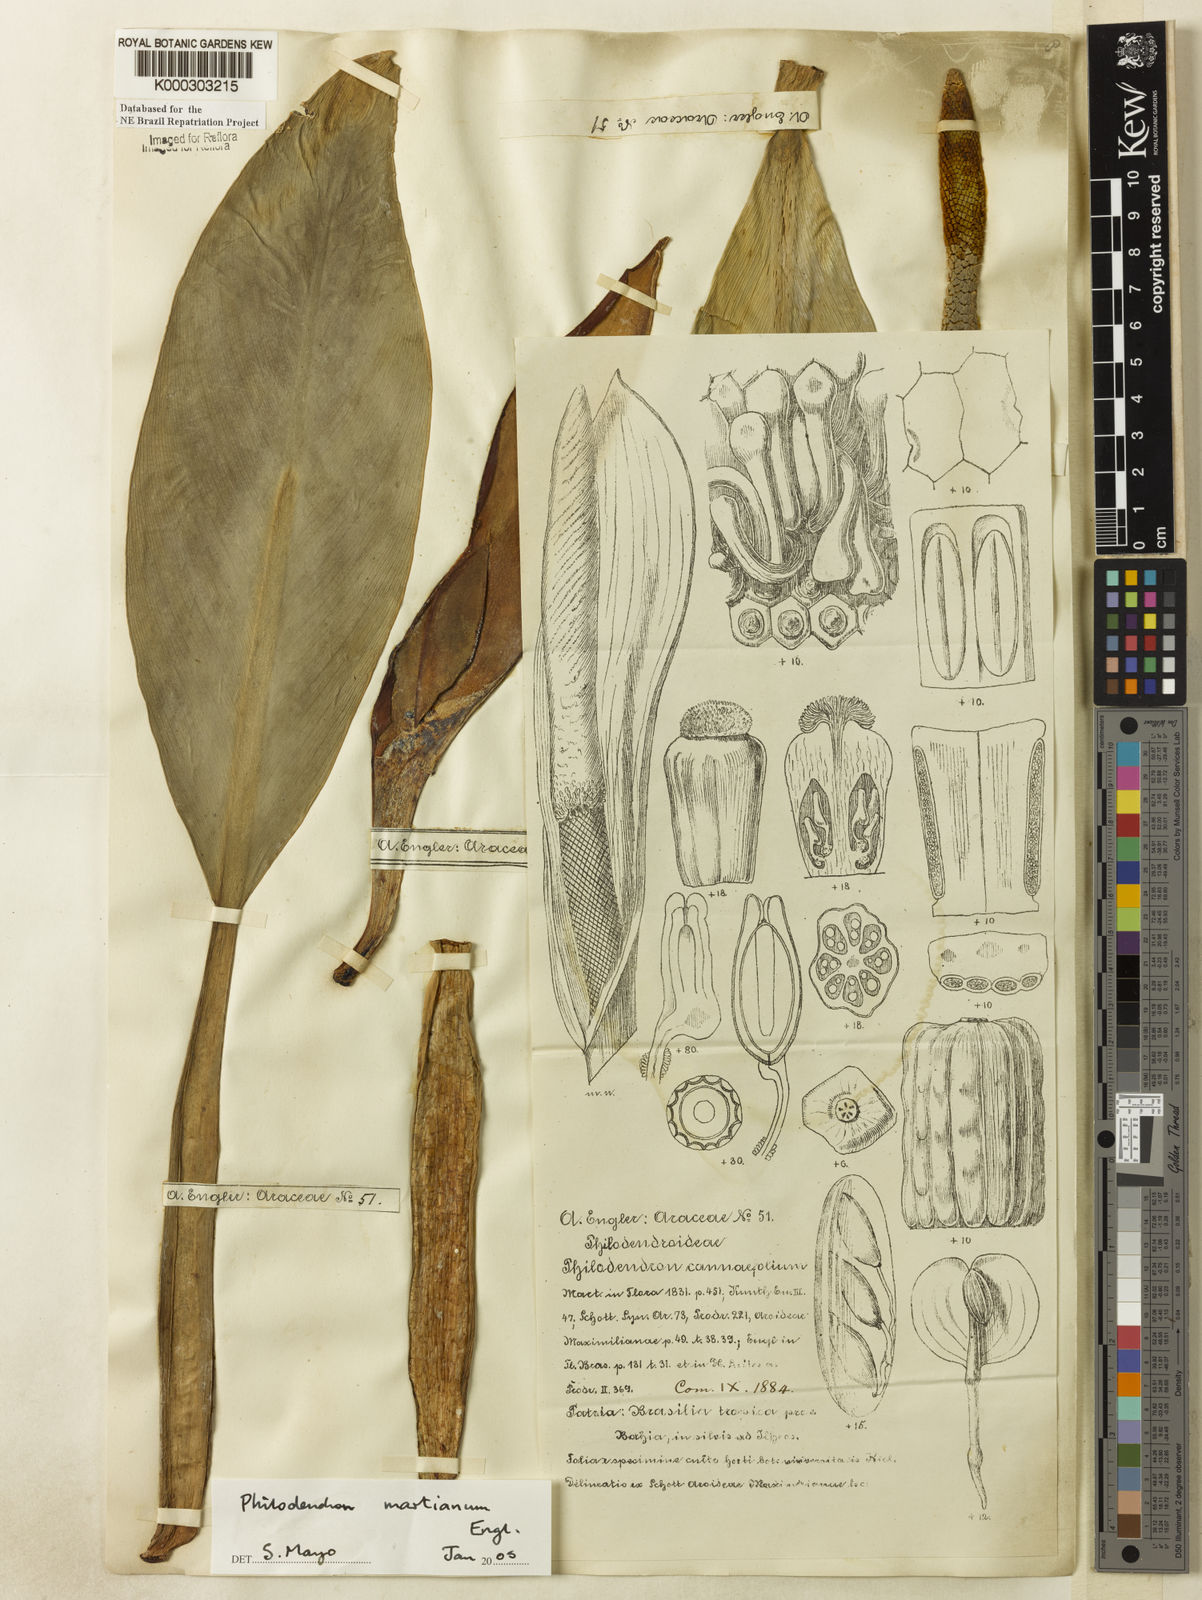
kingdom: Plantae
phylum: Tracheophyta
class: Liliopsida
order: Alismatales
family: Araceae
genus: Philodendron
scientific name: Philodendron martianum
